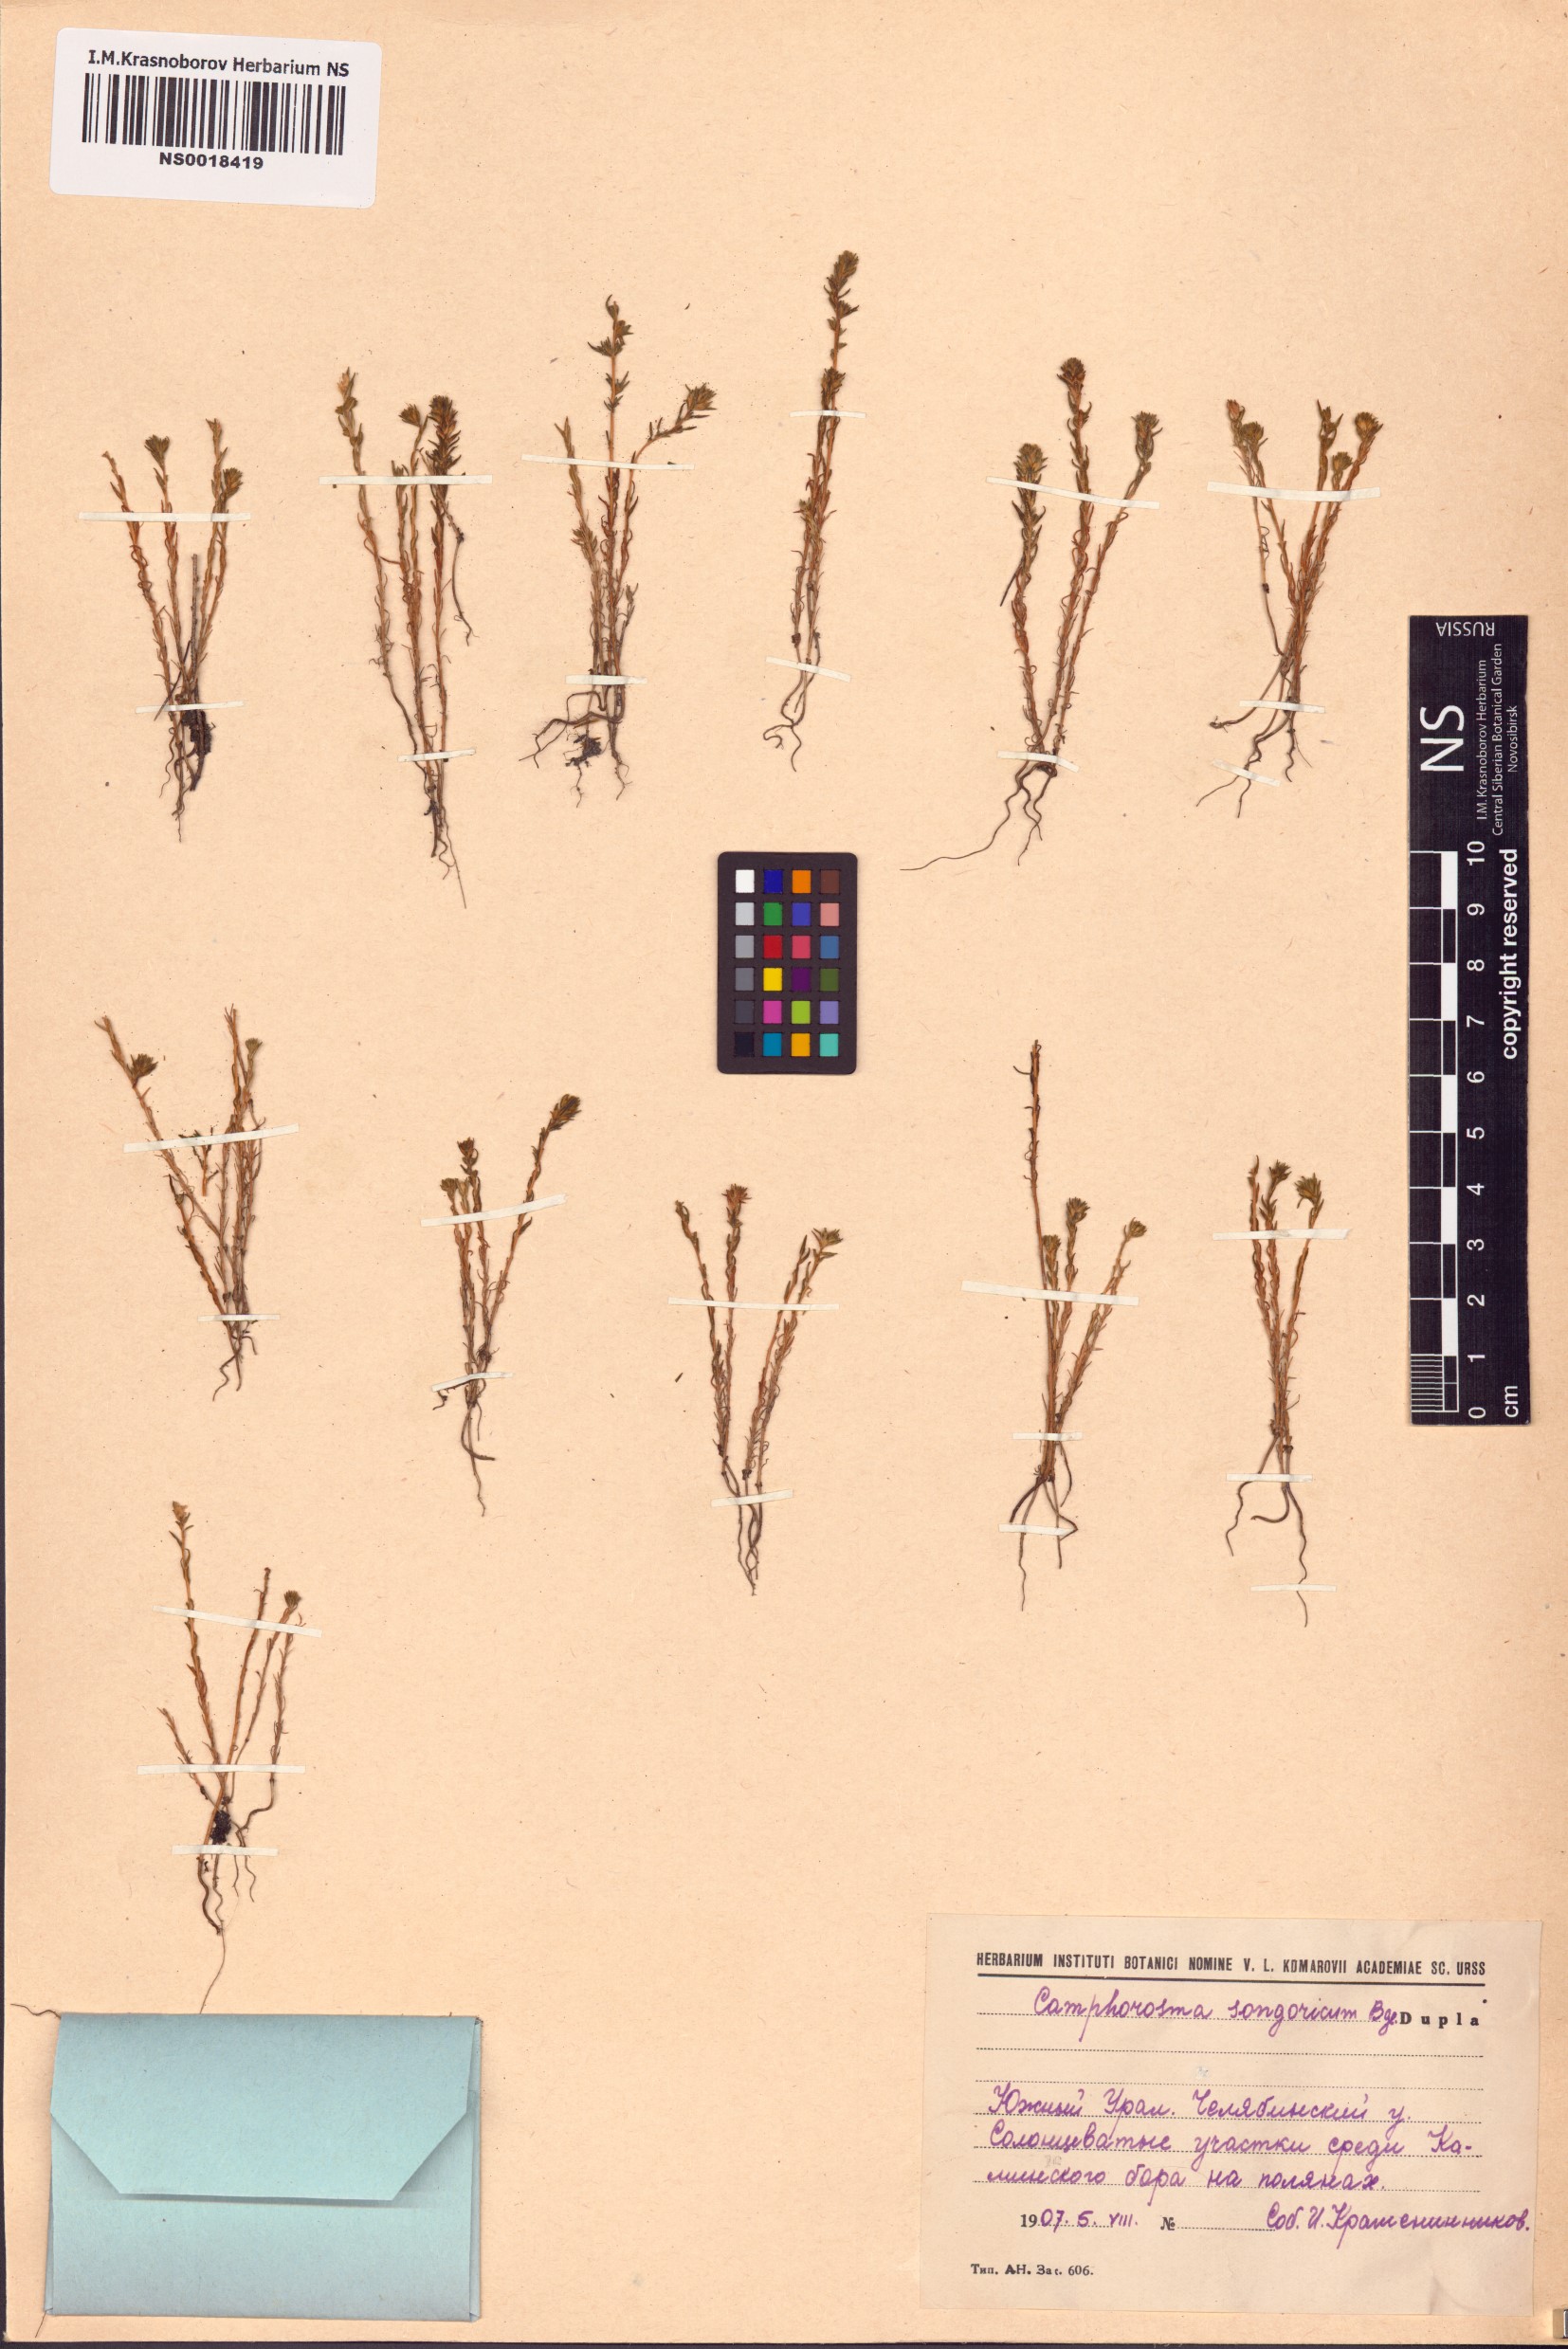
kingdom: Plantae
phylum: Tracheophyta
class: Magnoliopsida
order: Caryophyllales
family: Amaranthaceae
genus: Camphorosma
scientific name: Camphorosma songorica
